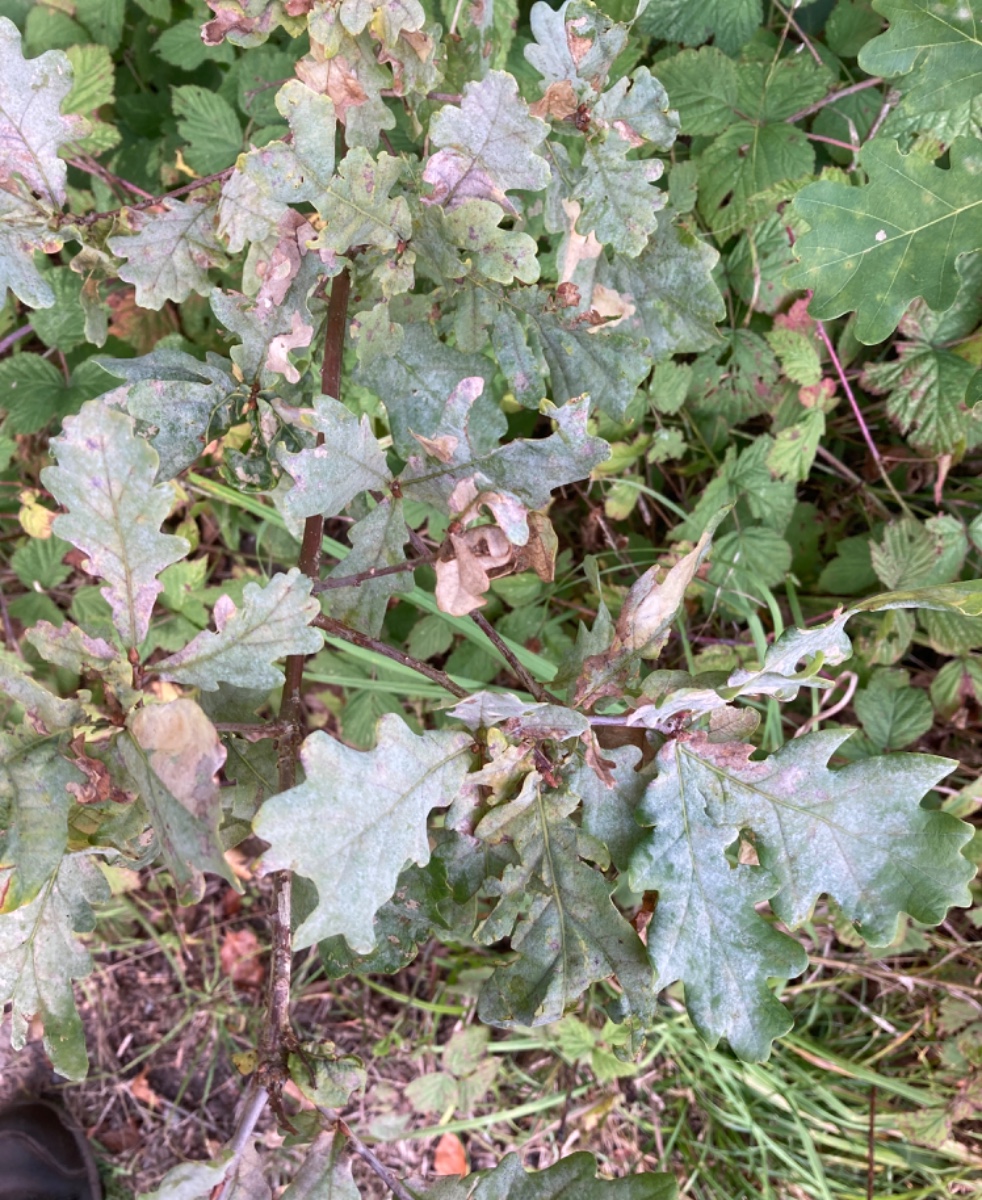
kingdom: Fungi
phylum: Ascomycota
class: Leotiomycetes
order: Helotiales
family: Erysiphaceae
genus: Erysiphe
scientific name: Erysiphe alphitoides
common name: ege-meldug
